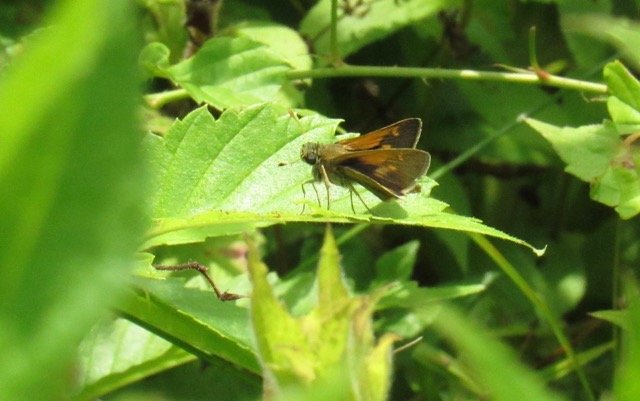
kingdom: Animalia
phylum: Arthropoda
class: Insecta
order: Lepidoptera
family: Hesperiidae
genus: Polites
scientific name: Polites themistocles
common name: Tawny-edged Skipper
